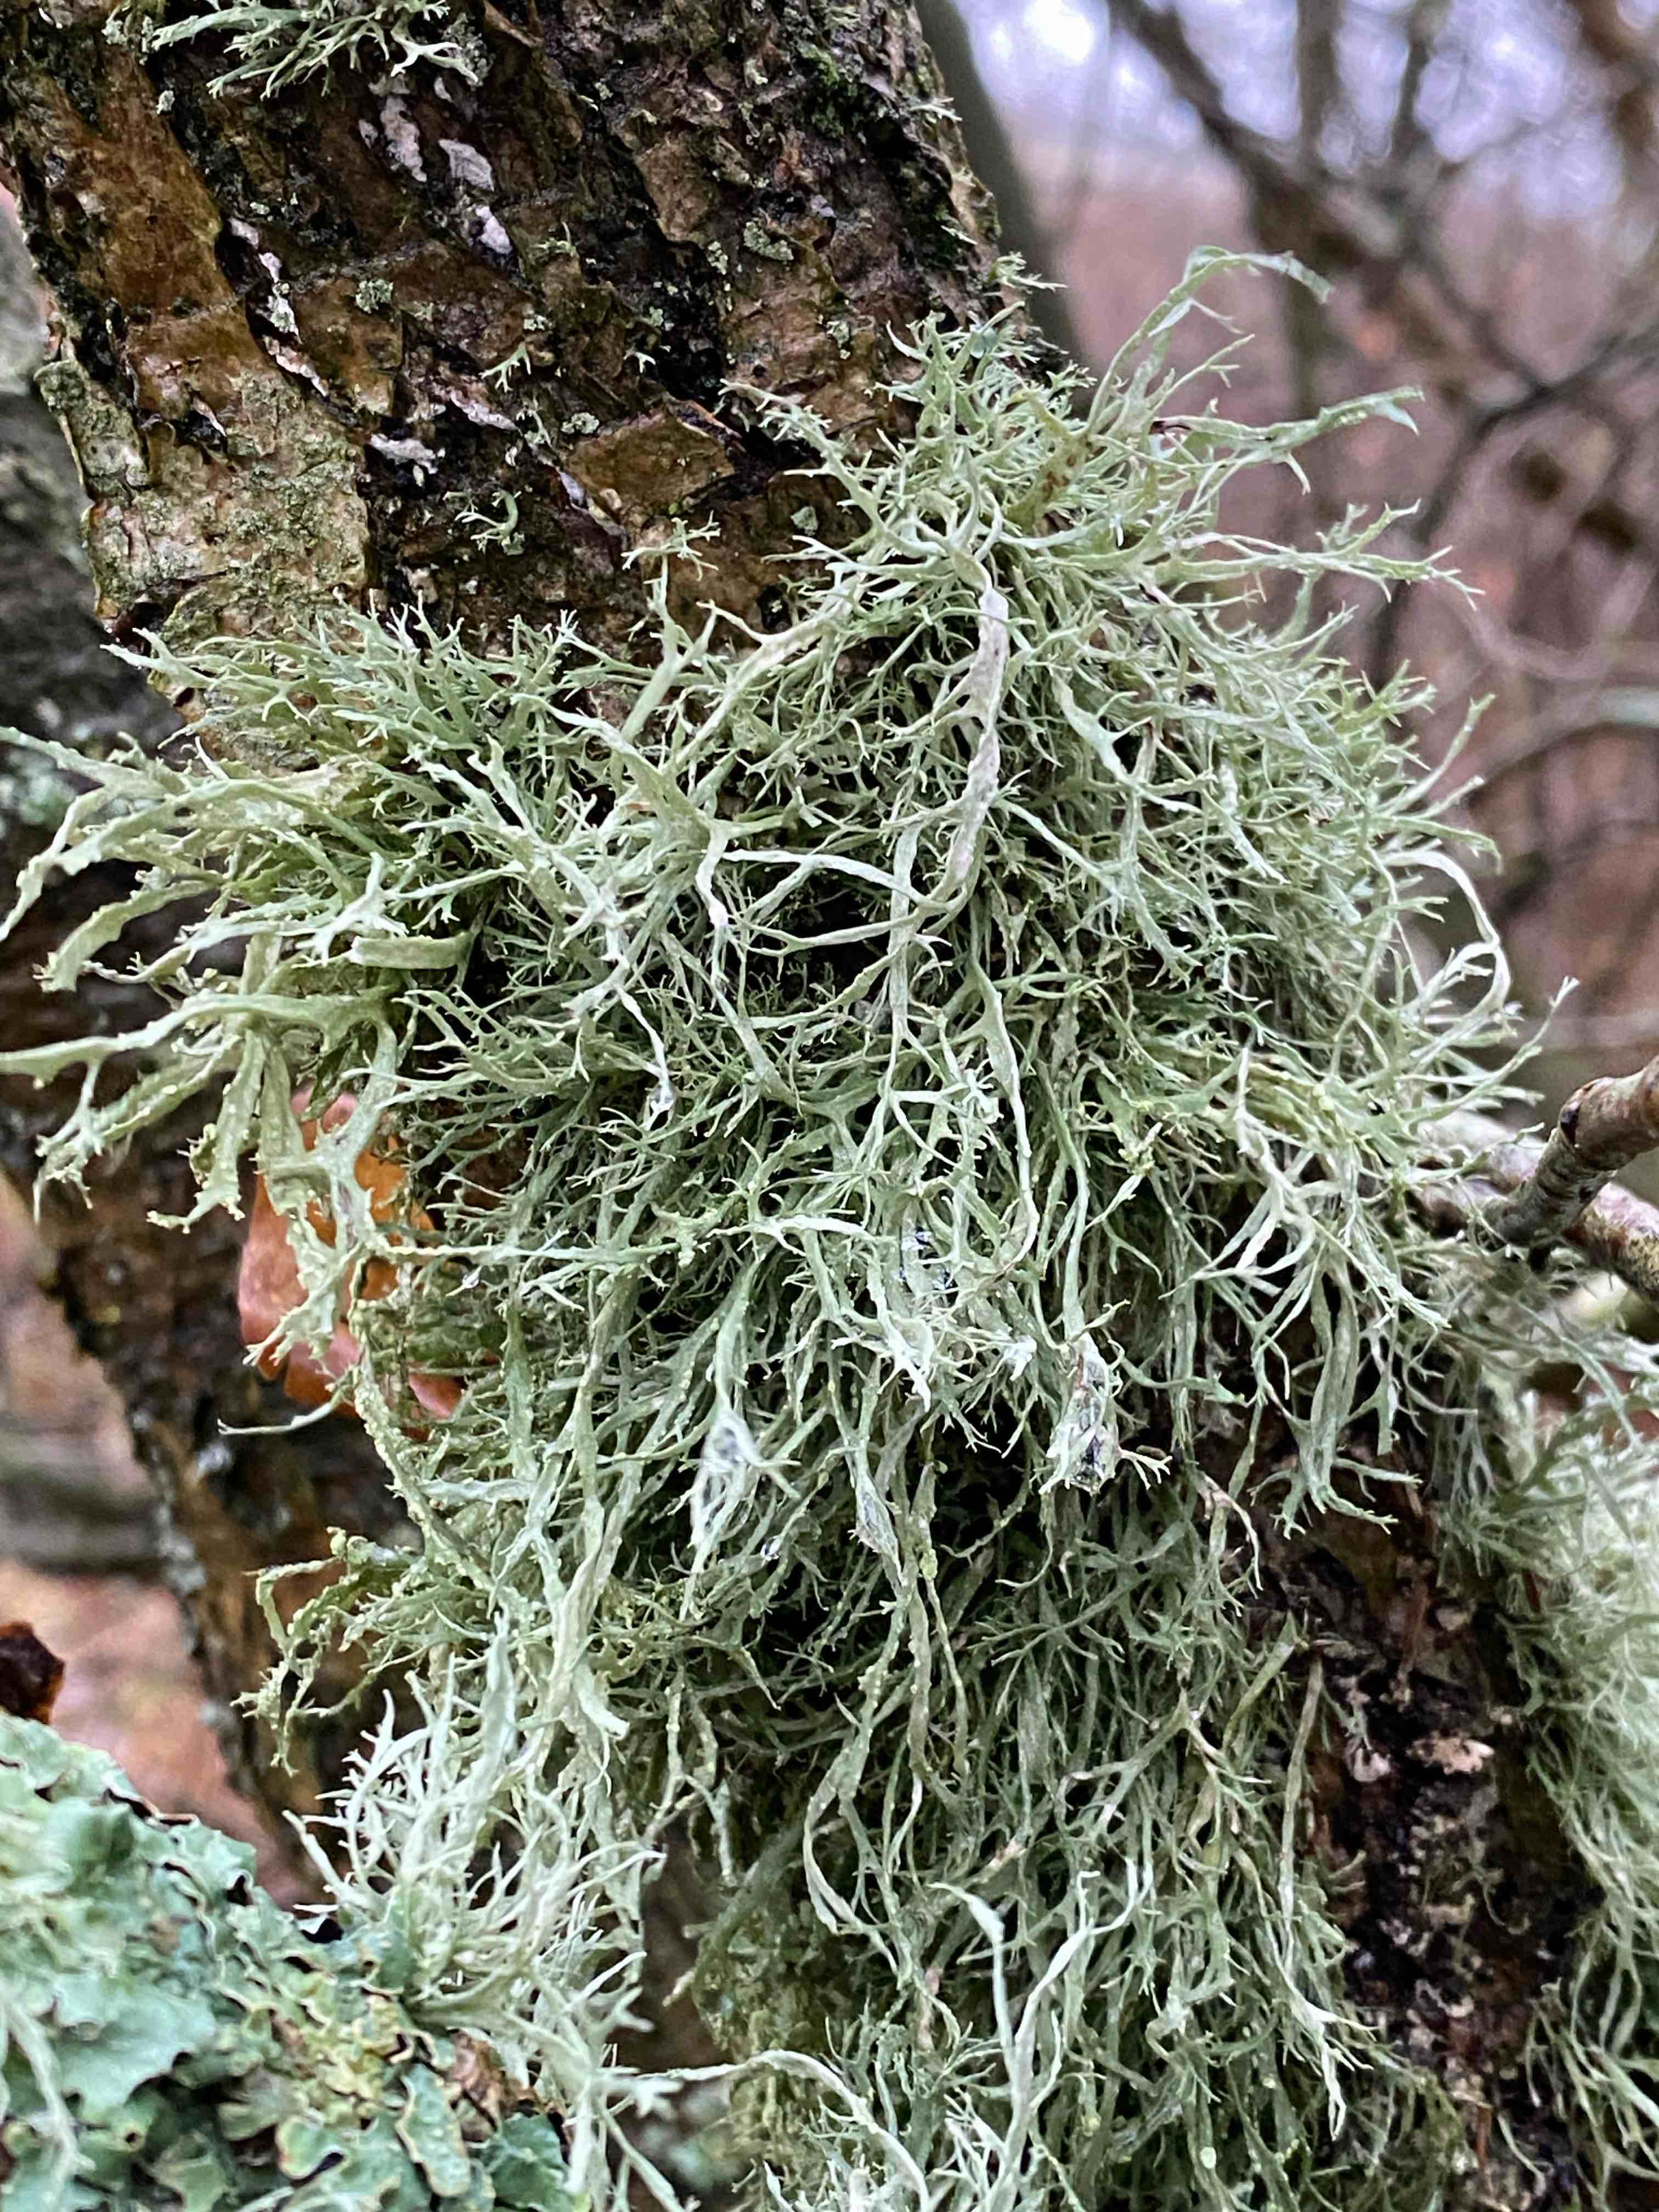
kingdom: Fungi
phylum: Ascomycota
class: Lecanoromycetes
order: Lecanorales
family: Ramalinaceae
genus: Ramalina
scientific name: Ramalina farinacea
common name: melet grenlav
